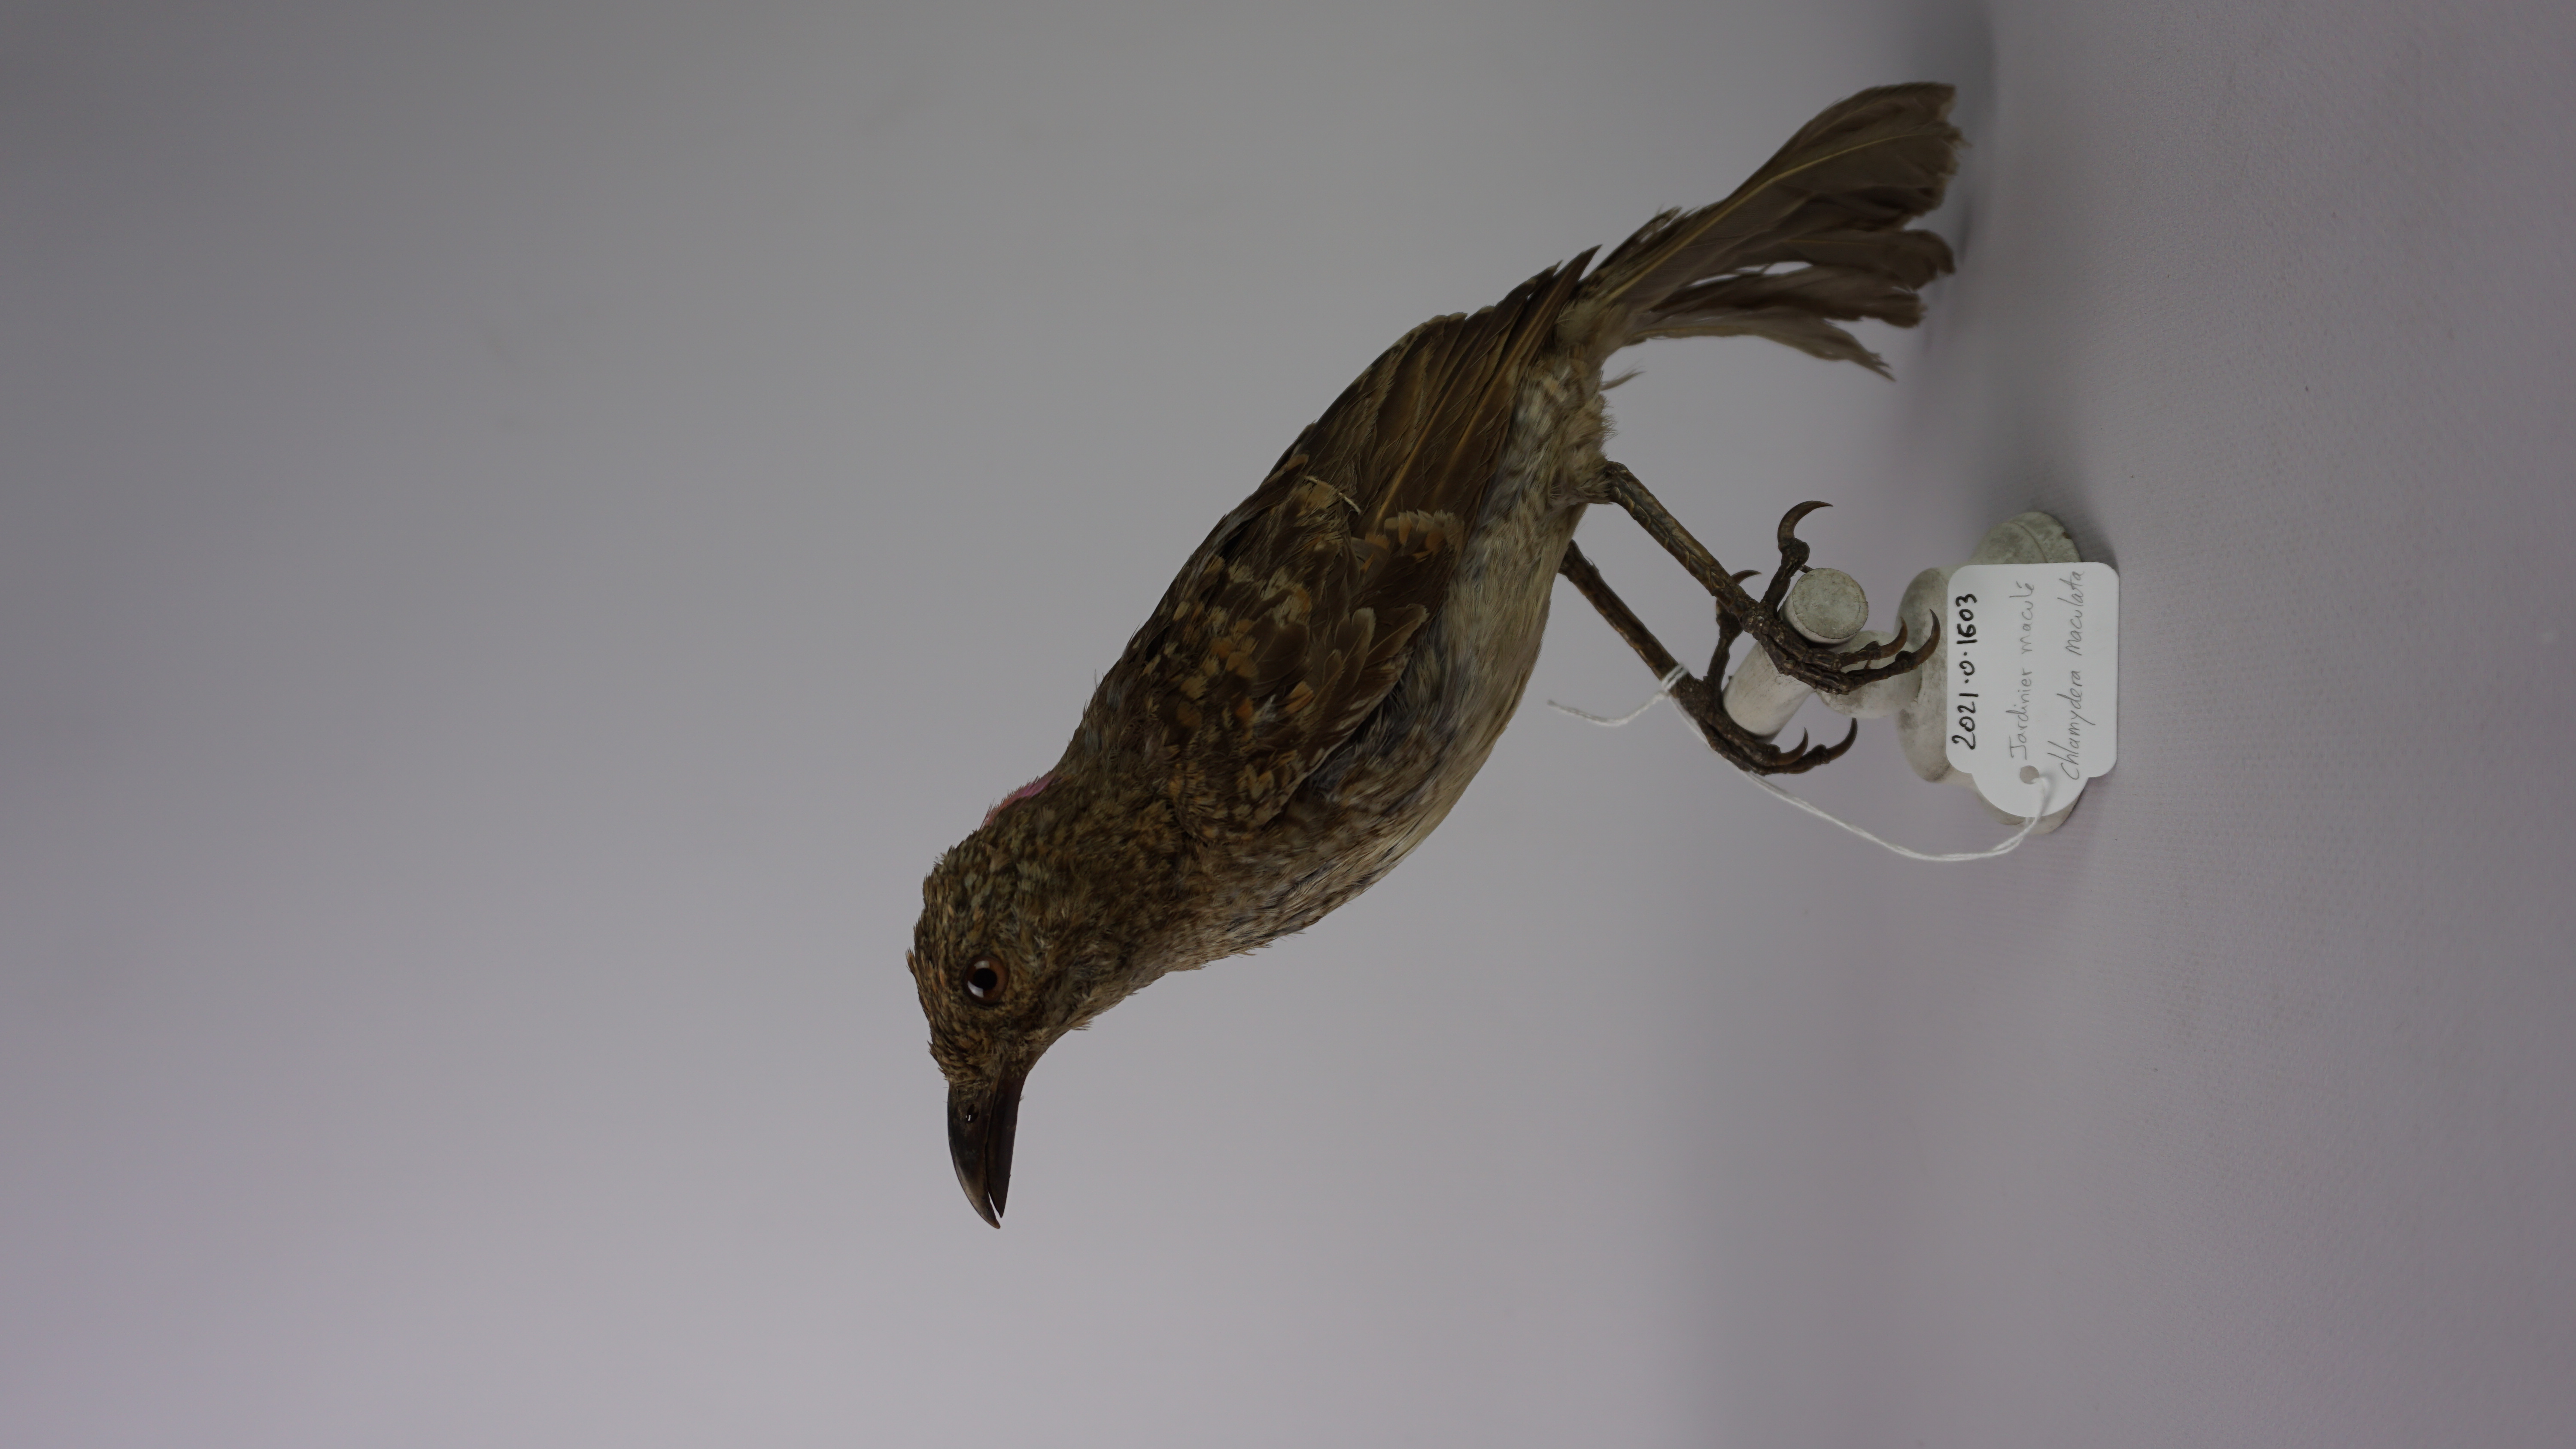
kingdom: Animalia
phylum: Chordata
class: Aves
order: Passeriformes
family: Ptilonorhynchidae
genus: Chlamydera
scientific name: Chlamydera maculata
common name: Spotted bowerbird
